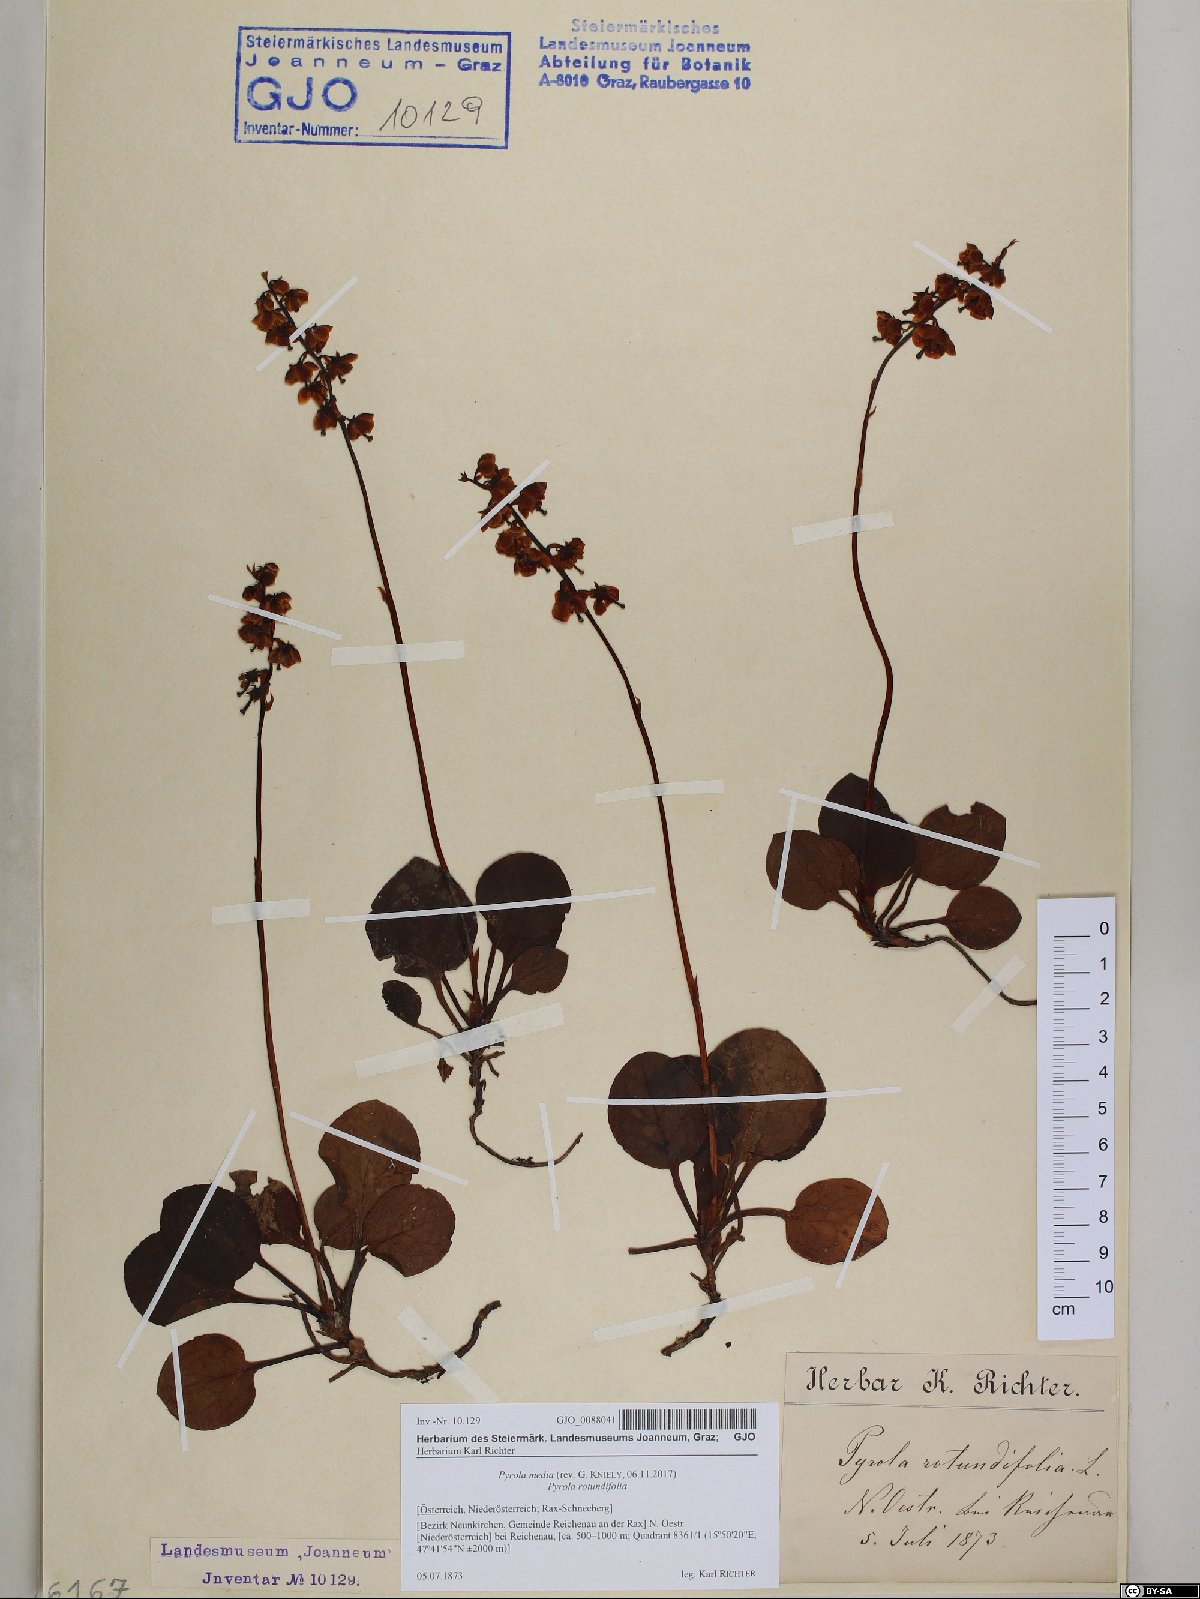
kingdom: Plantae
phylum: Tracheophyta
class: Magnoliopsida
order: Ericales
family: Ericaceae
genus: Pyrola
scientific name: Pyrola media
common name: Intermediate wintergreen
